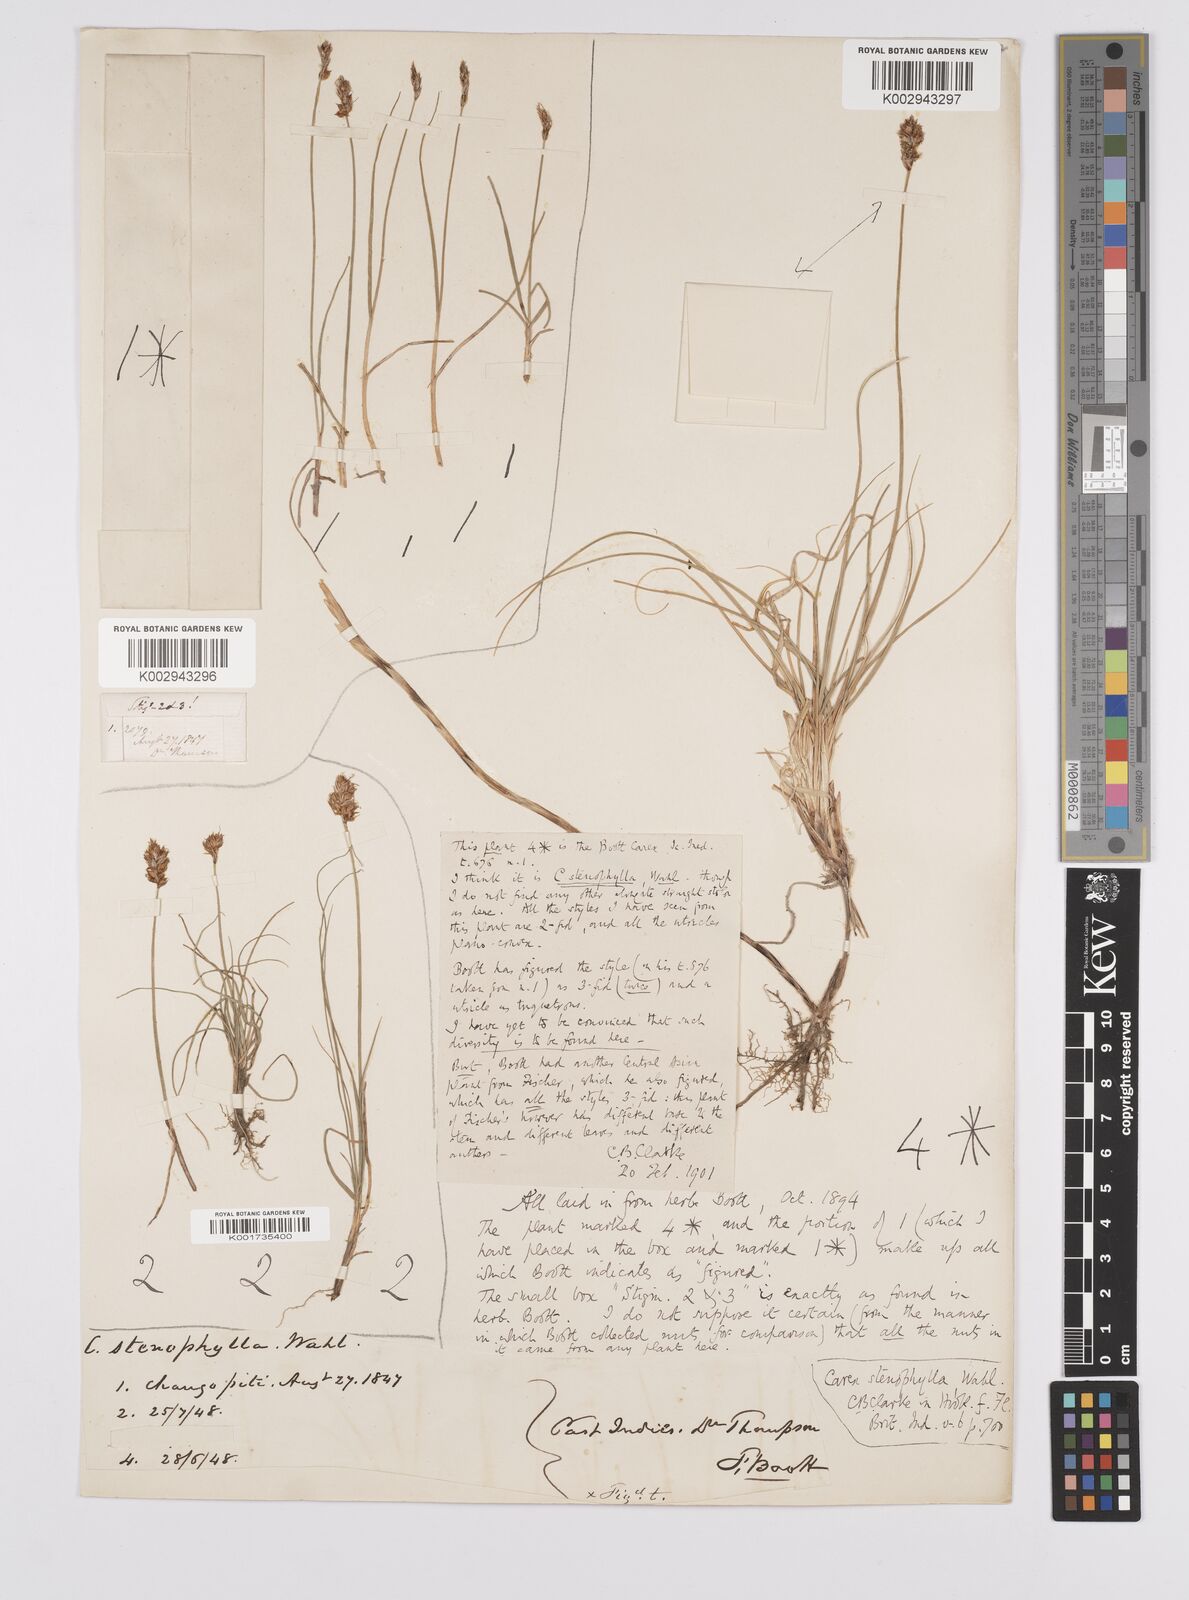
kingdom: Plantae
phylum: Tracheophyta
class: Liliopsida
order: Poales
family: Cyperaceae
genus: Carex
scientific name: Carex stenophylla
